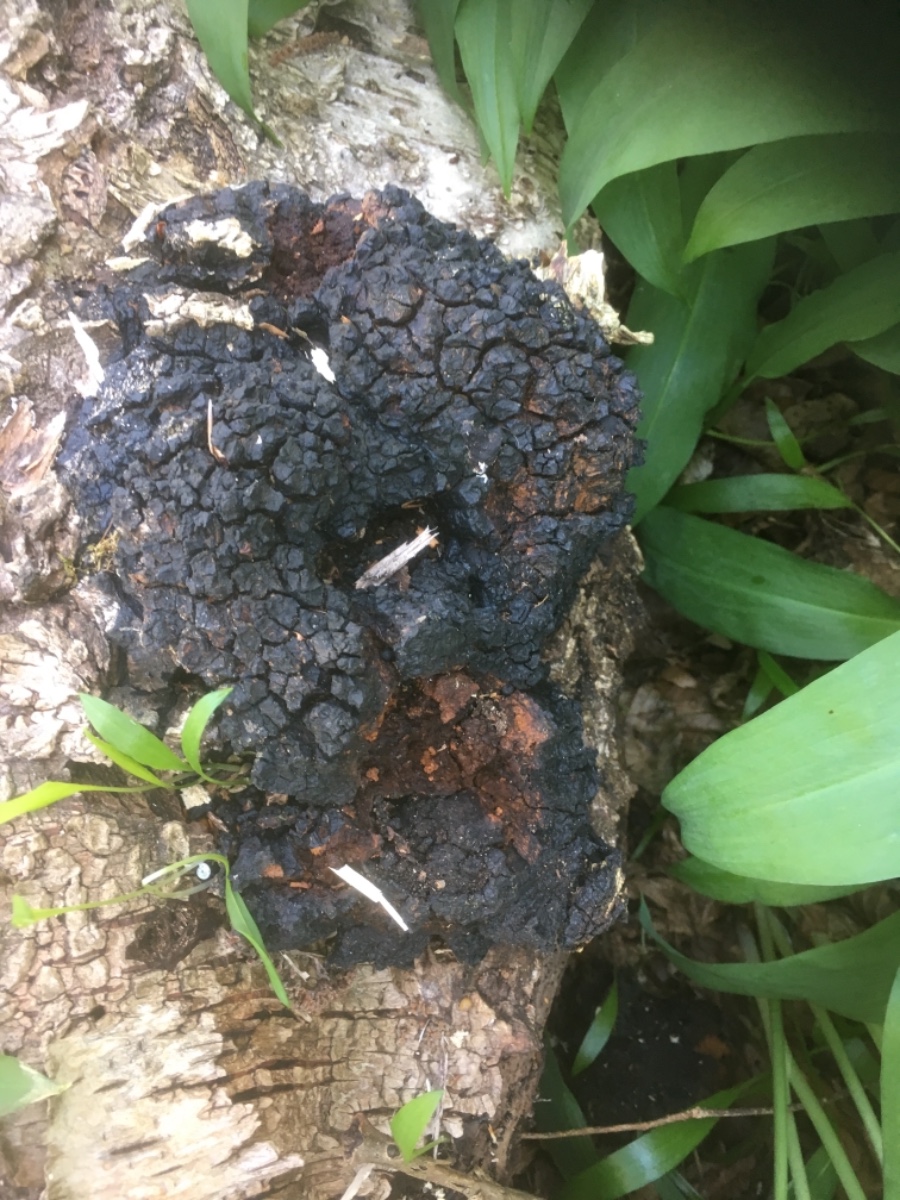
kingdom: Fungi
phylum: Basidiomycota
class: Agaricomycetes
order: Hymenochaetales
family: Hymenochaetaceae
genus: Inonotus
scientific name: Inonotus obliquus
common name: birke-spejlporesvamp
